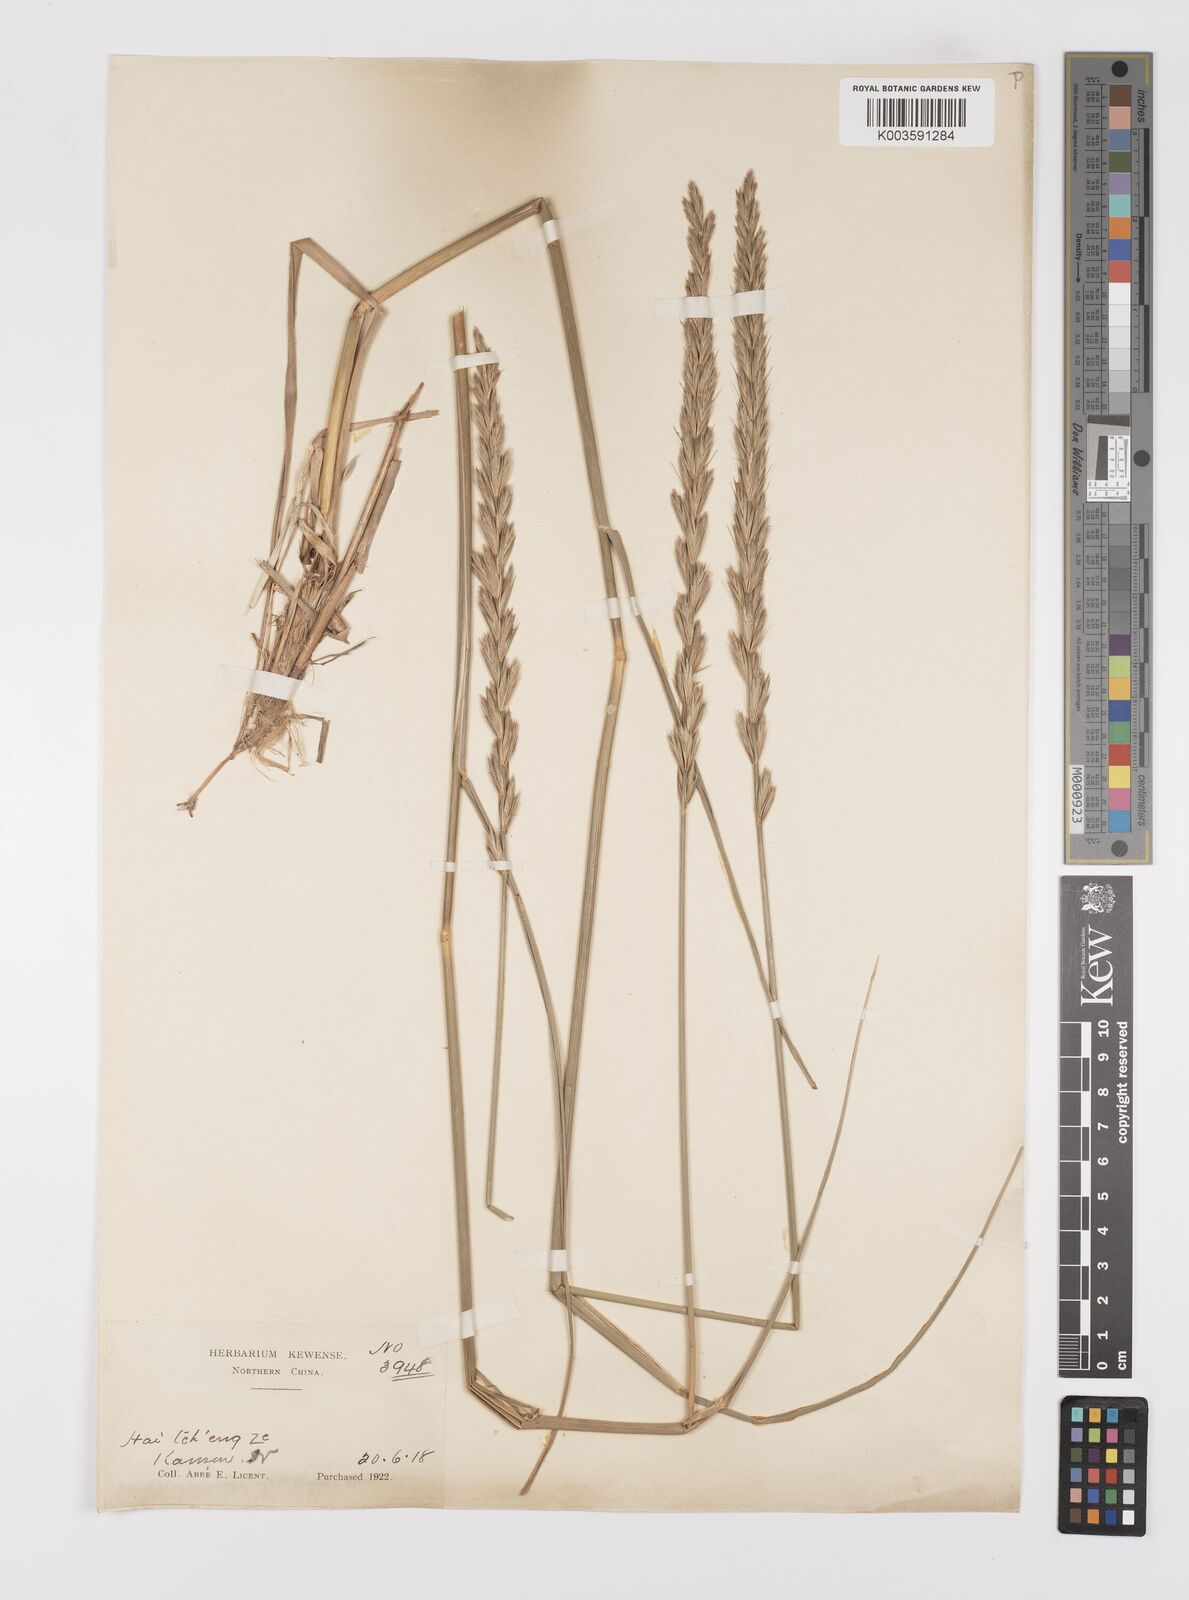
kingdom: Plantae
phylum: Tracheophyta
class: Liliopsida
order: Poales
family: Poaceae
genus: Leymus
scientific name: Leymus secalinus
